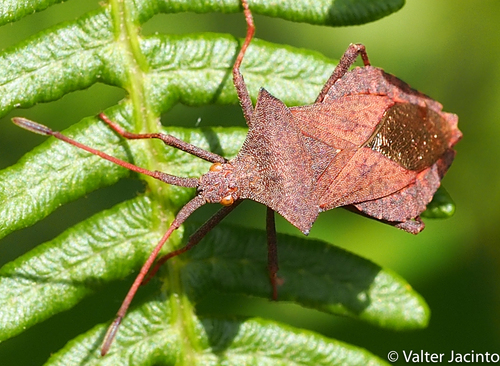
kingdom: Animalia
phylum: Arthropoda
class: Insecta
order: Hemiptera
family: Coreidae
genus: Coreus
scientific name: Coreus marginatus
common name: Dock bug
